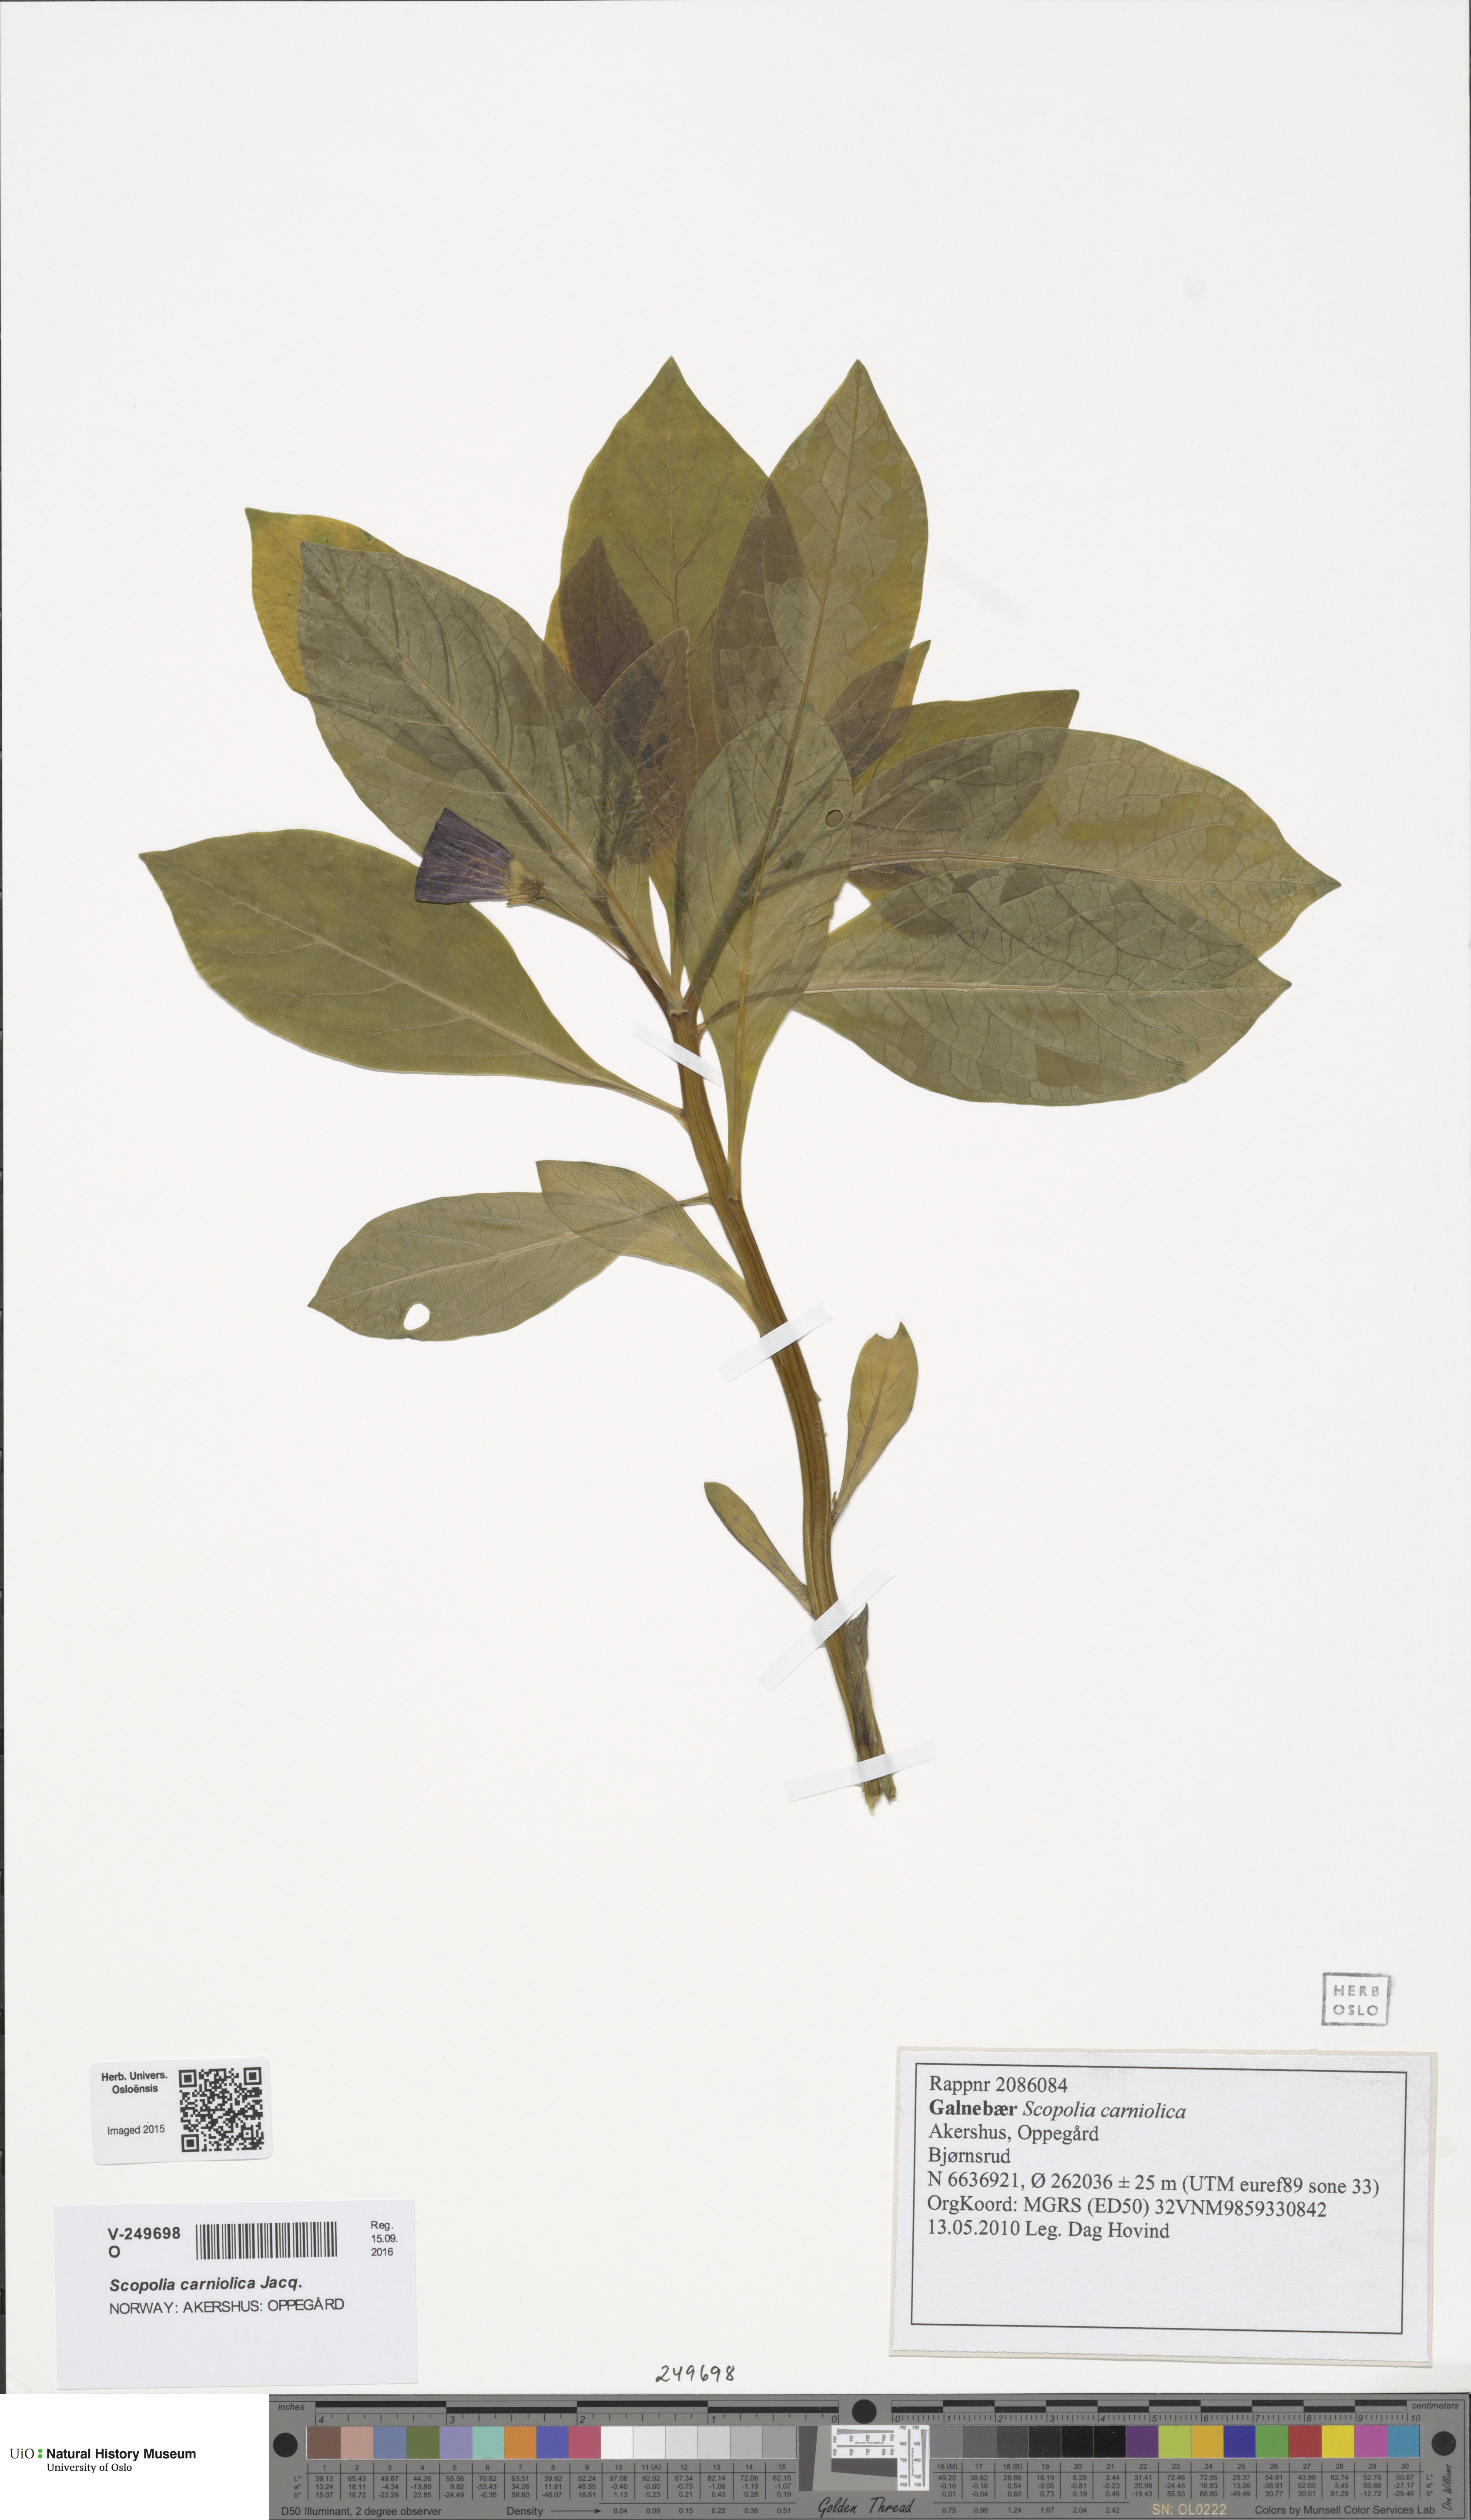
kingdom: Plantae
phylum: Tracheophyta
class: Magnoliopsida
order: Solanales
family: Solanaceae
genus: Scopolia
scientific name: Scopolia carniolica
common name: Scopolia
